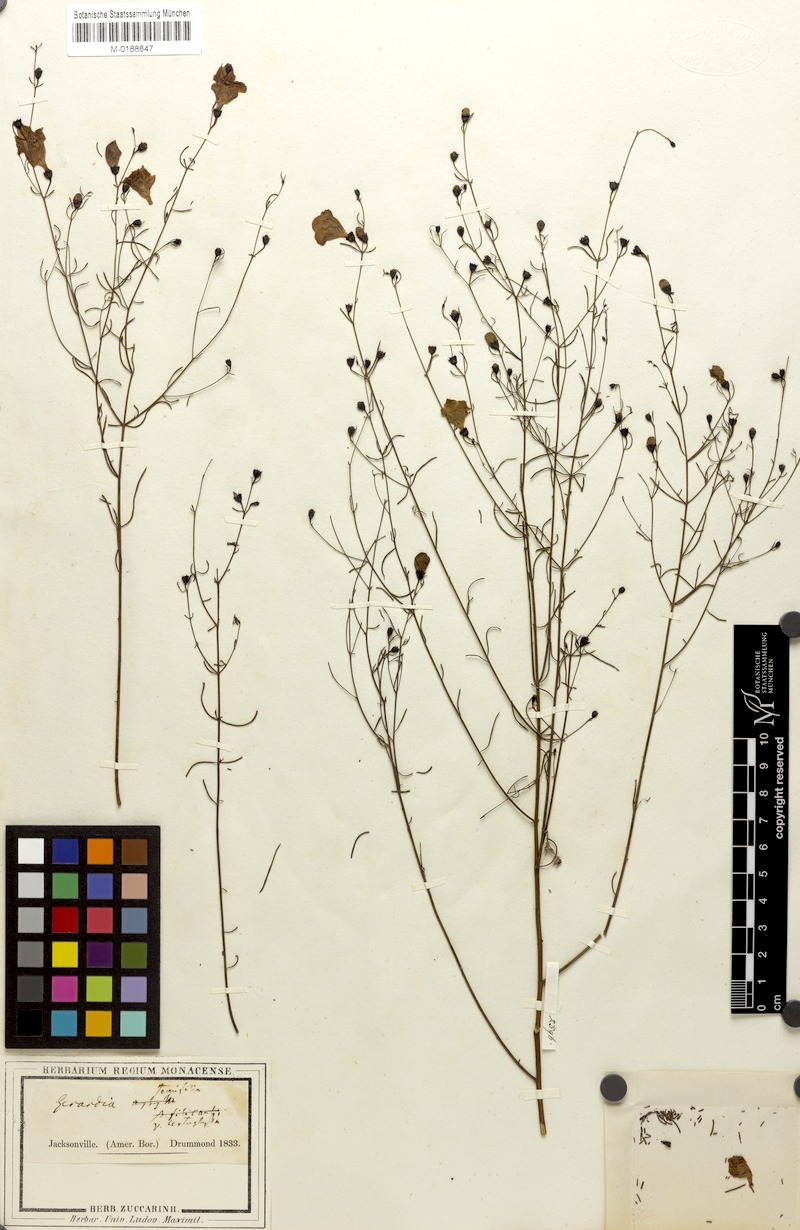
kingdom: Plantae
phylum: Tracheophyta
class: Magnoliopsida
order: Lamiales
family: Orobanchaceae
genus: Agalinis
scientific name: Agalinis tenuifolia
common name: Slender agalinis
